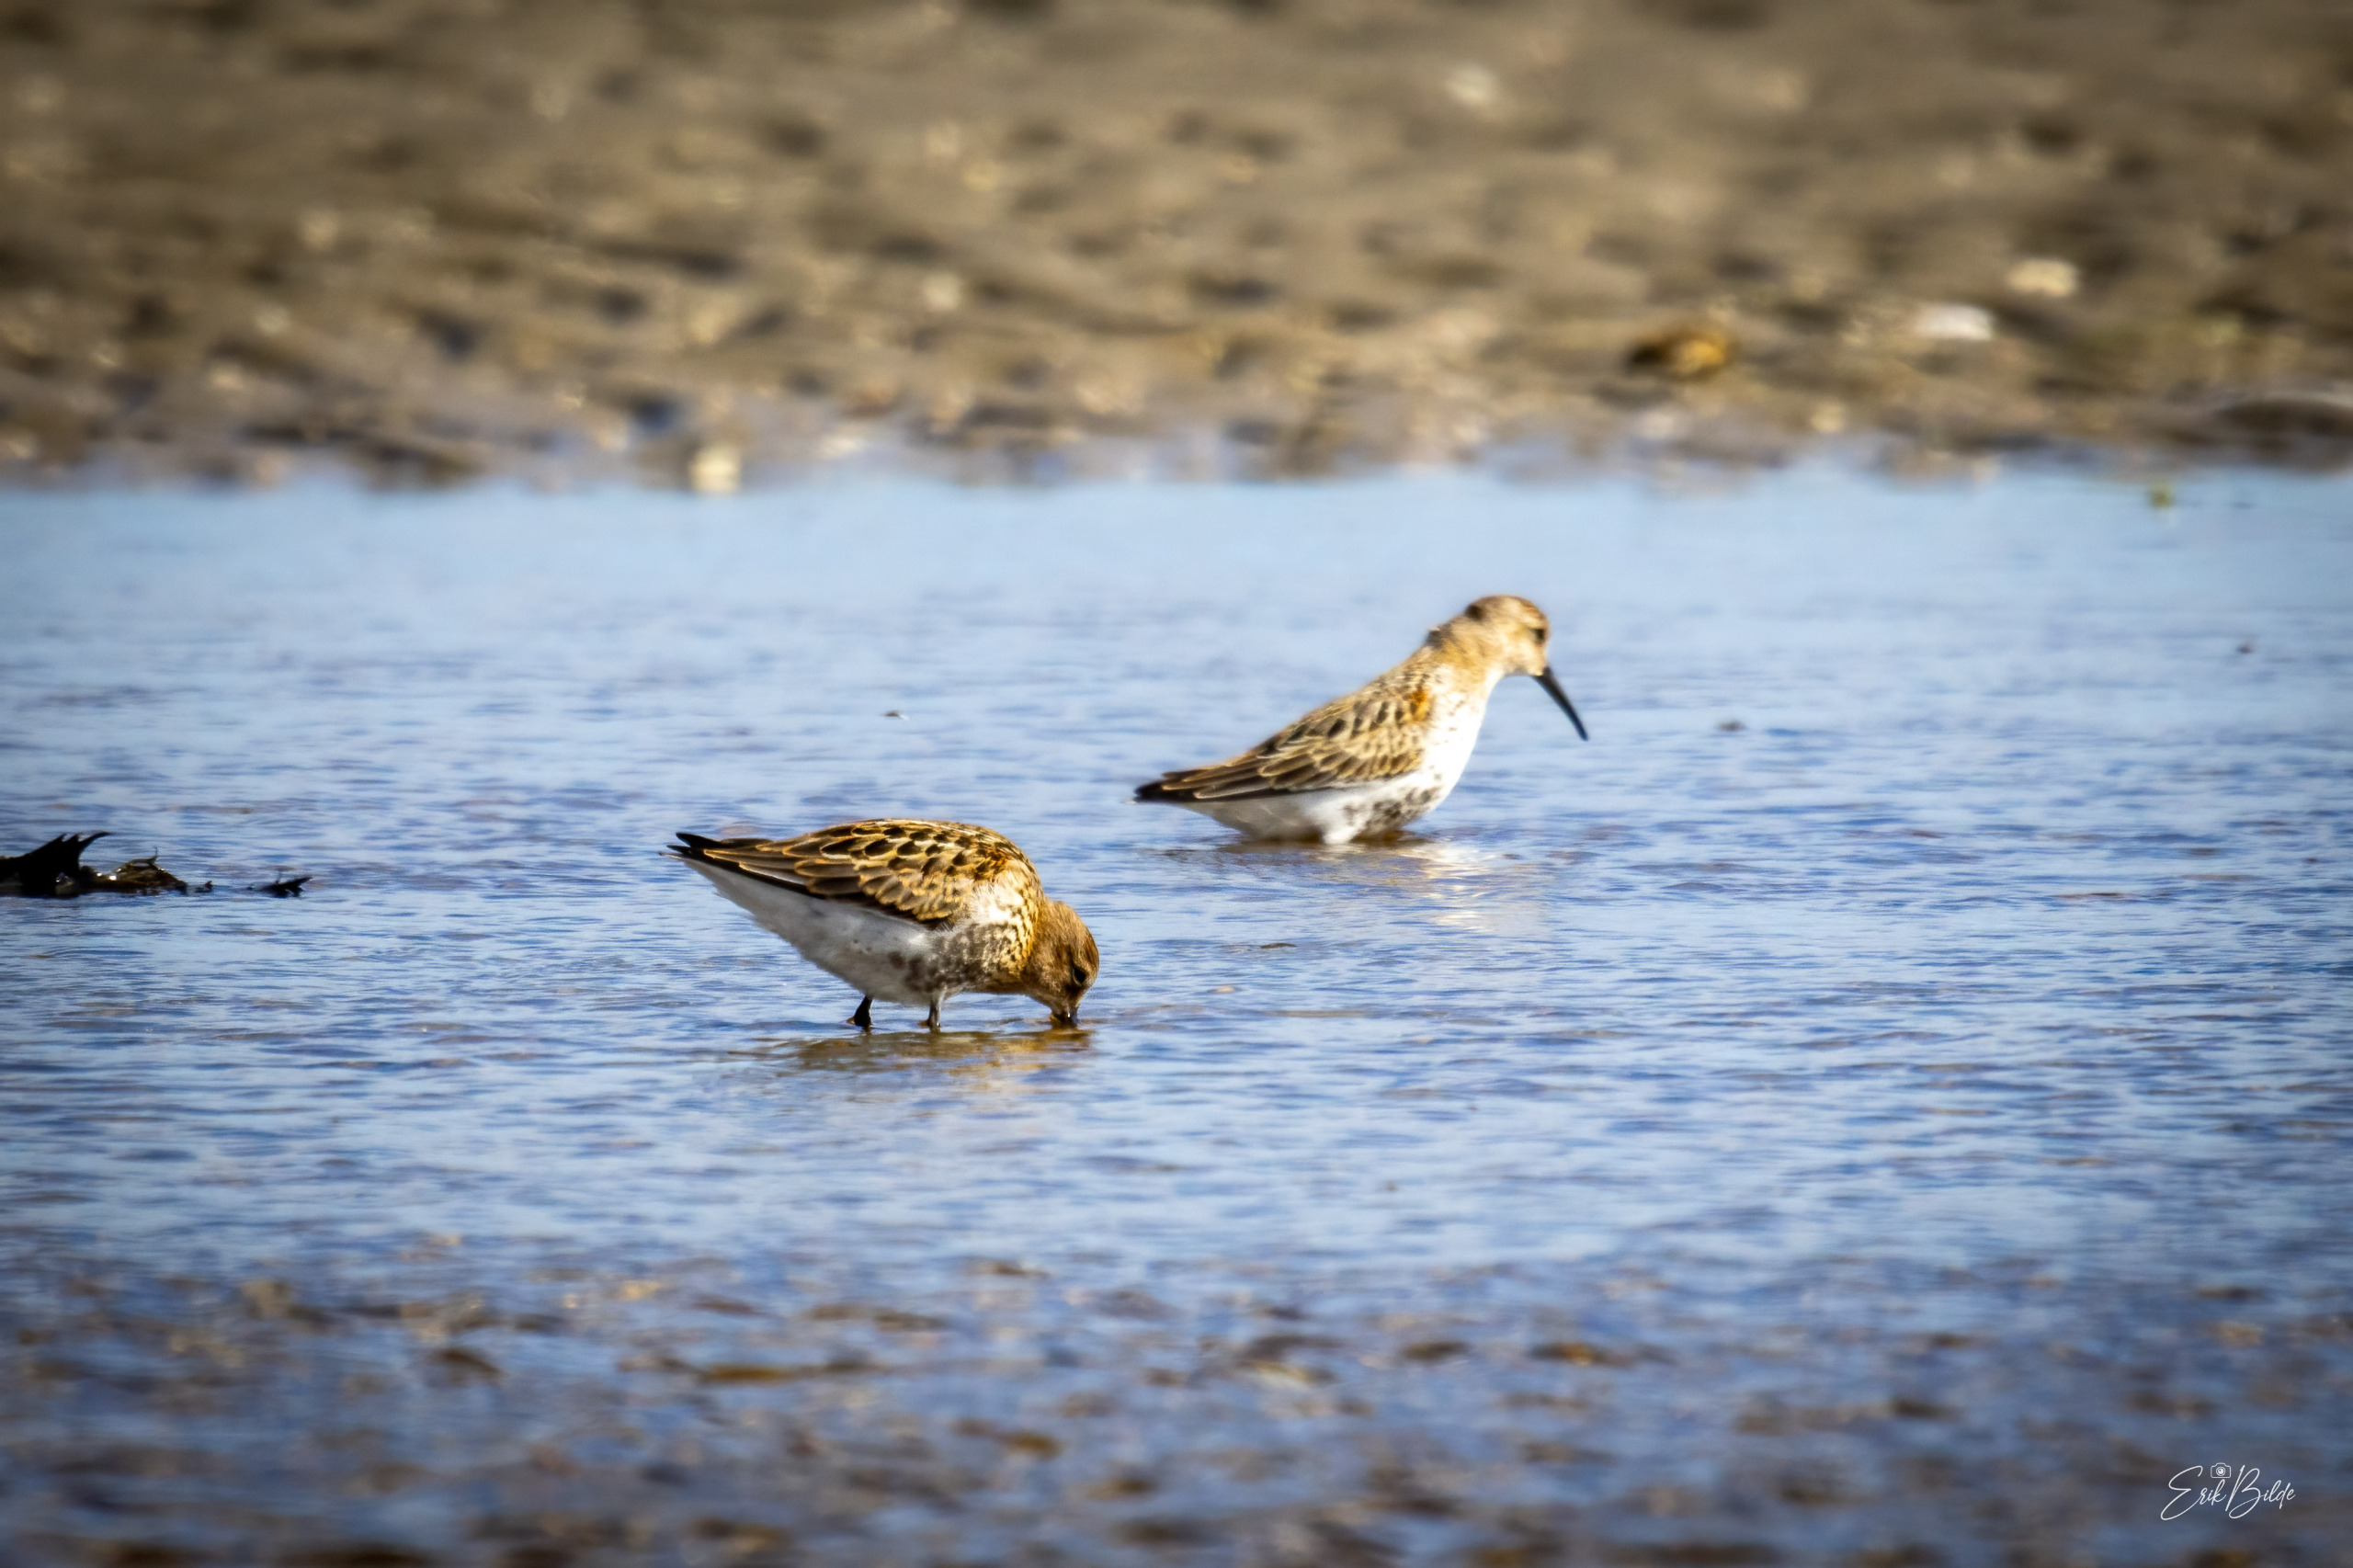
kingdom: Animalia
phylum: Chordata
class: Aves
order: Charadriiformes
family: Scolopacidae
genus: Calidris
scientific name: Calidris alpina
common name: Almindelig ryle
